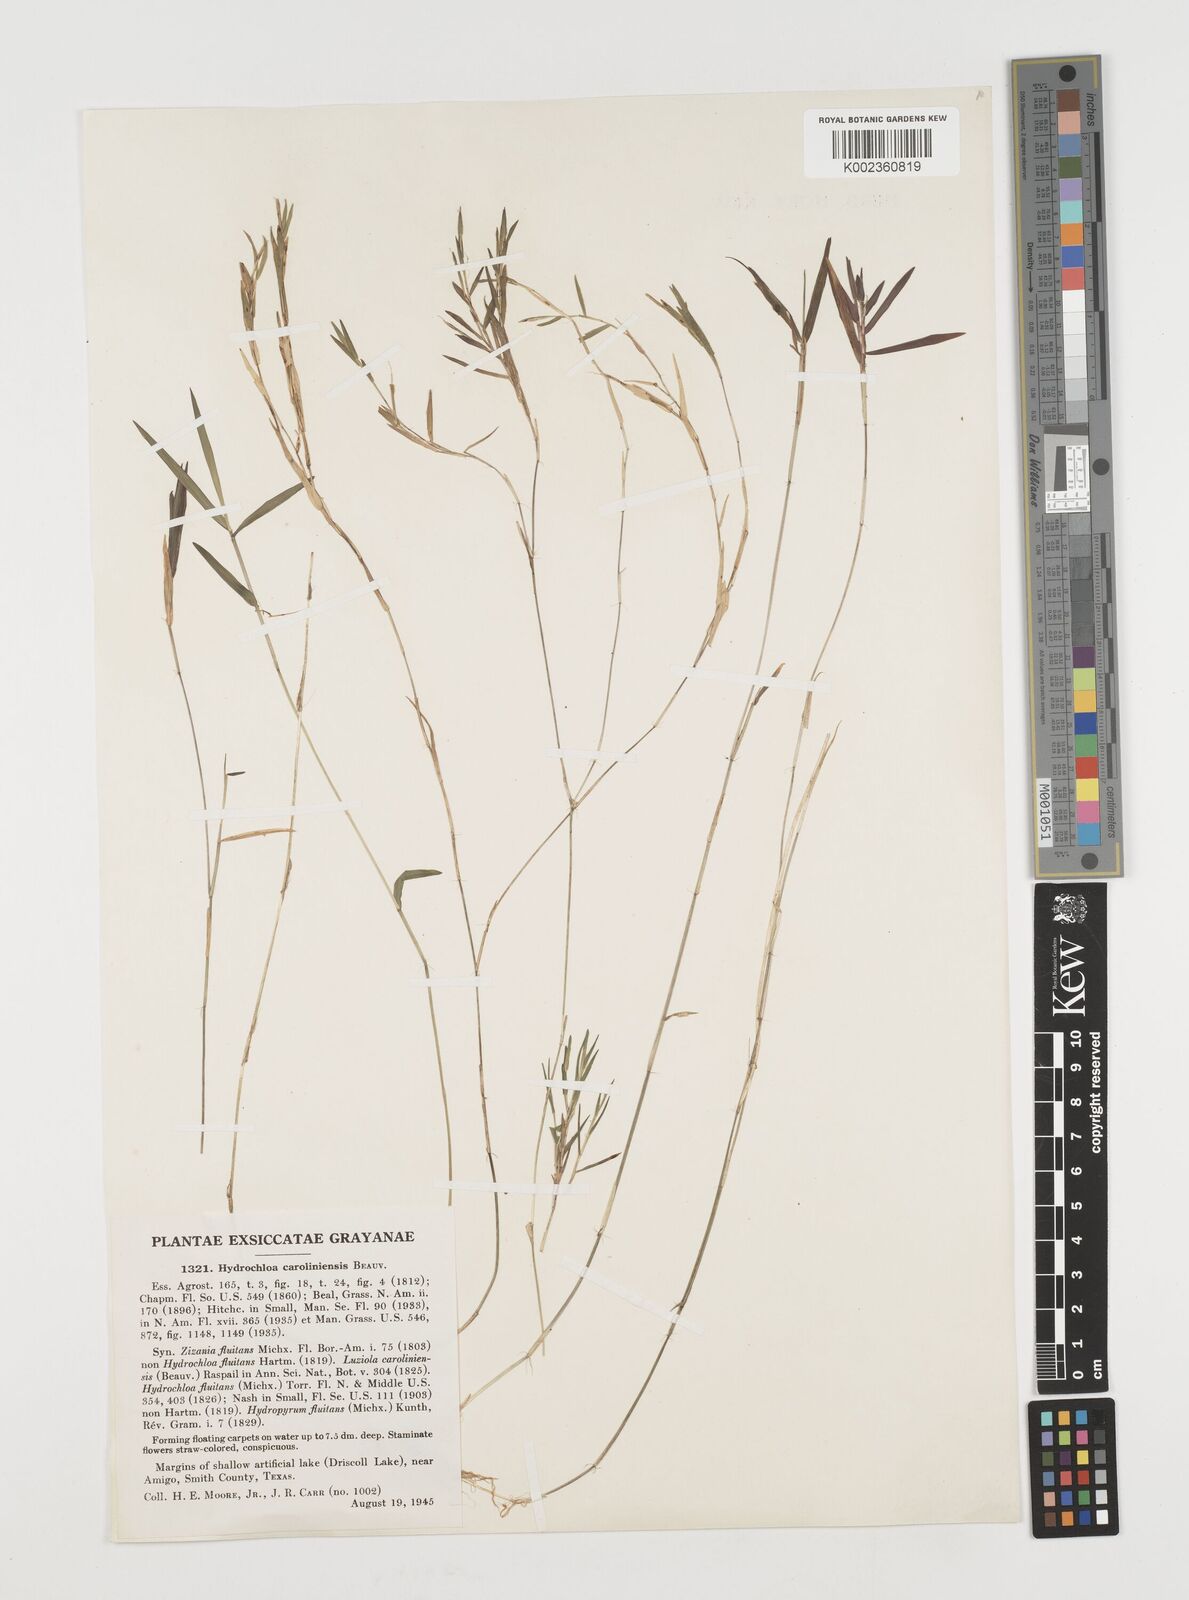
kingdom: Plantae
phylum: Tracheophyta
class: Liliopsida
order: Poales
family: Poaceae
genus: Luziola
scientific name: Luziola fluitans
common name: Silverleaf grass
